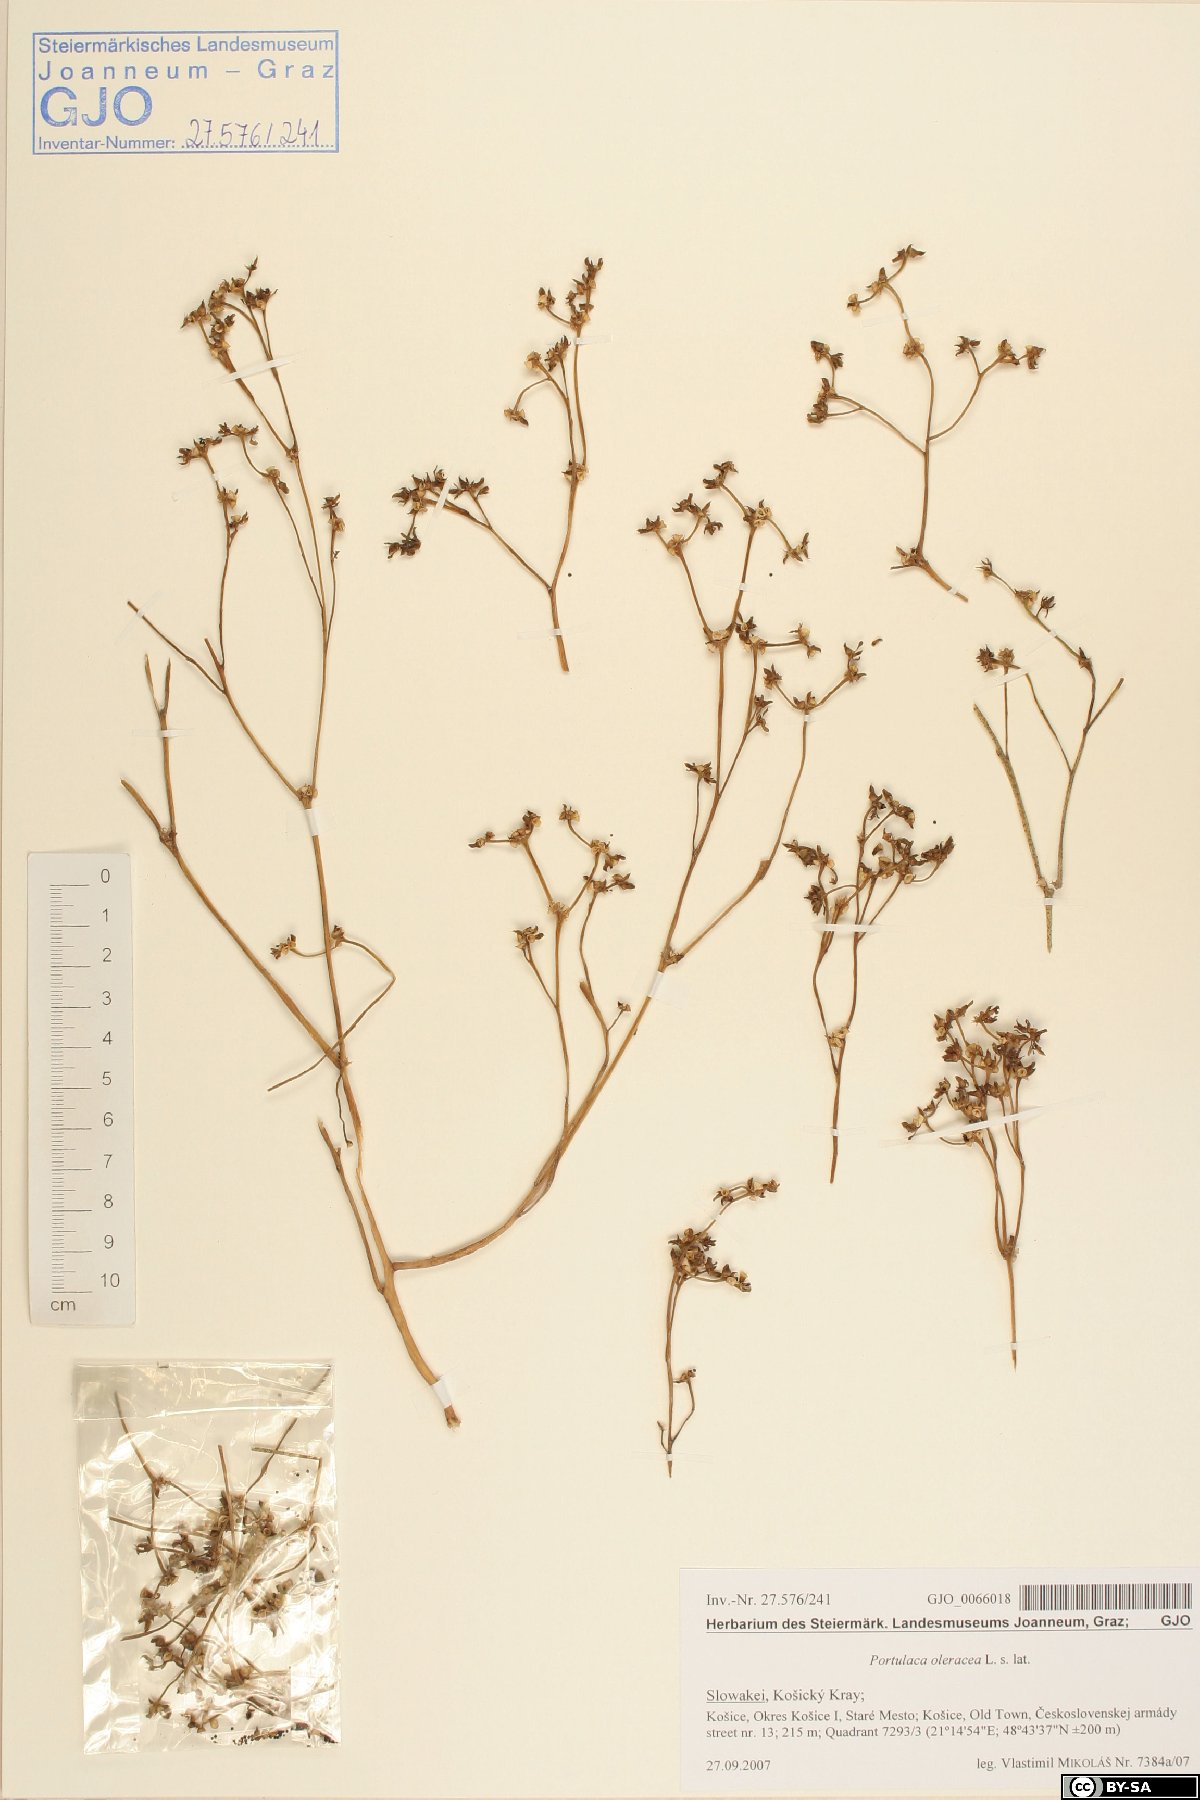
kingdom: Plantae
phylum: Tracheophyta
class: Magnoliopsida
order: Caryophyllales
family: Portulacaceae
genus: Portulaca
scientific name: Portulaca oleracea
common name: Common purslane
